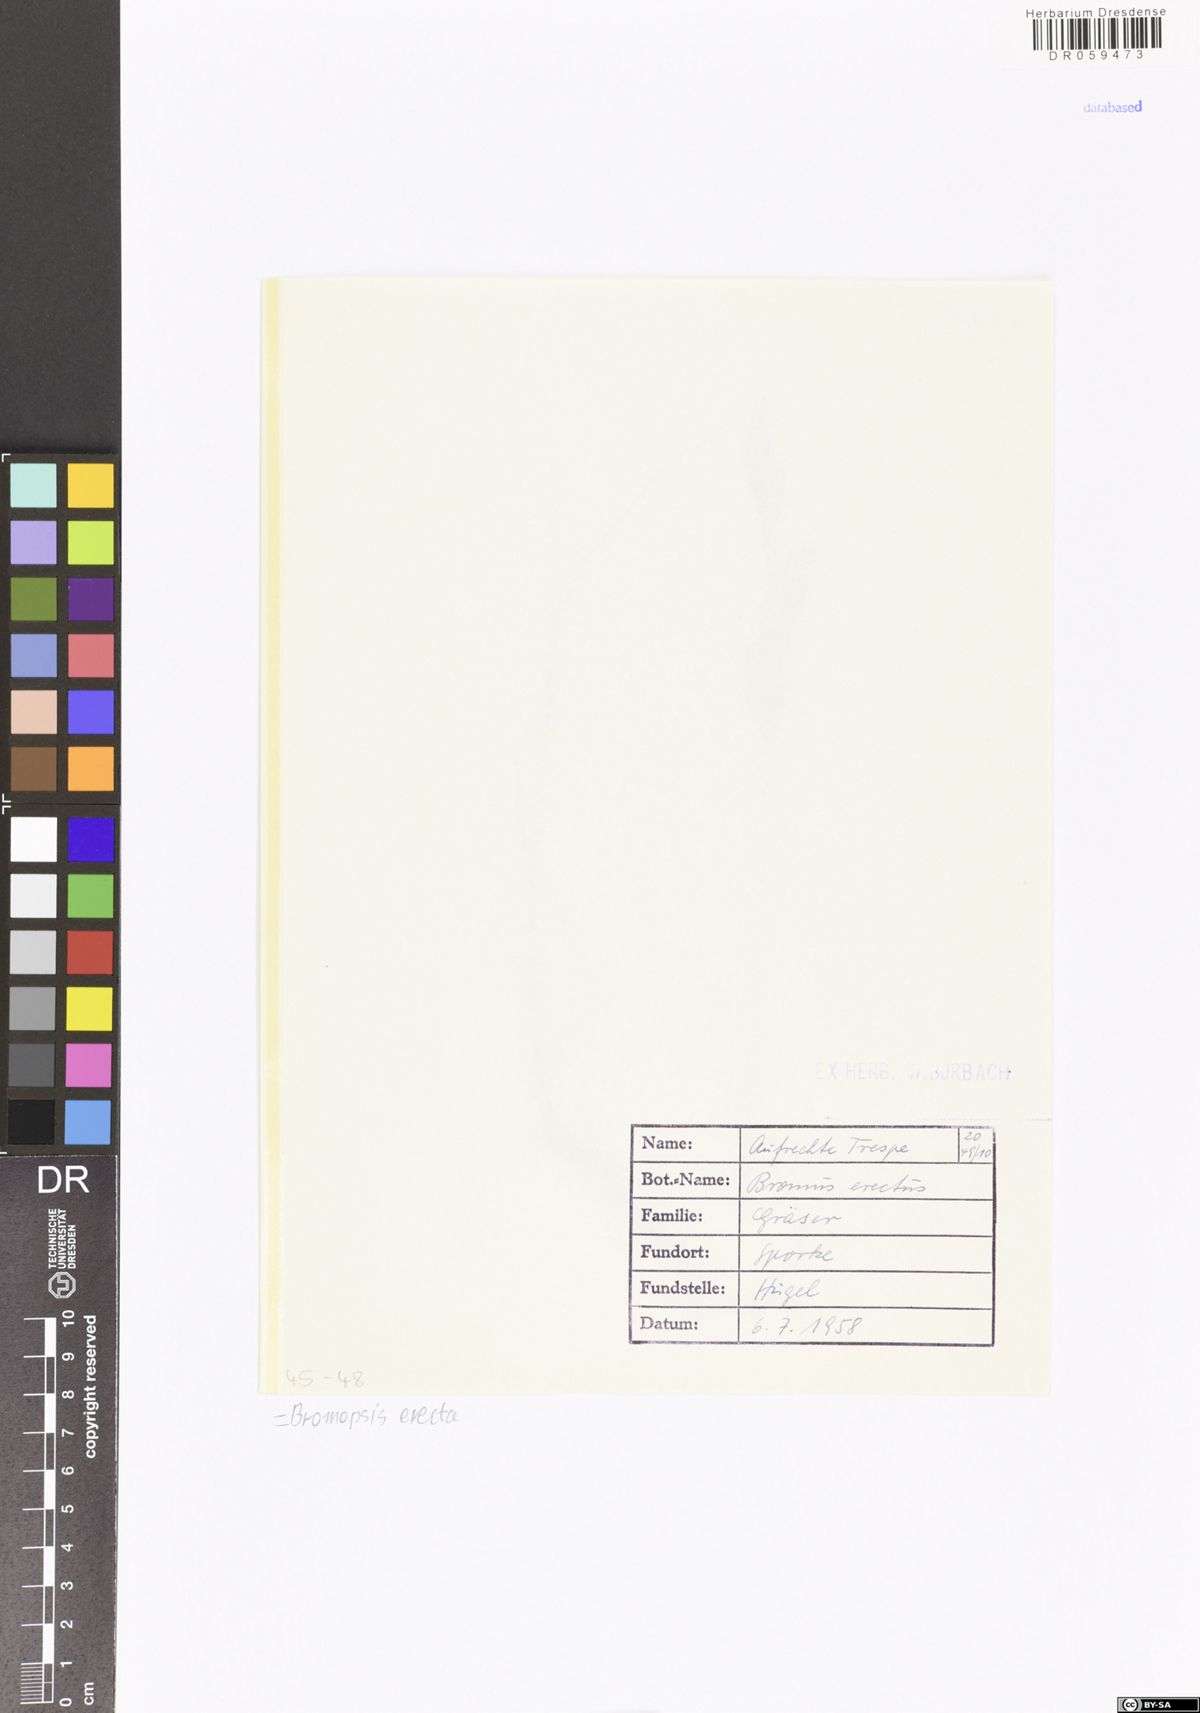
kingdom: Plantae
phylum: Tracheophyta
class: Liliopsida
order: Poales
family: Poaceae
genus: Bromus
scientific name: Bromus erectus
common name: Erect brome
